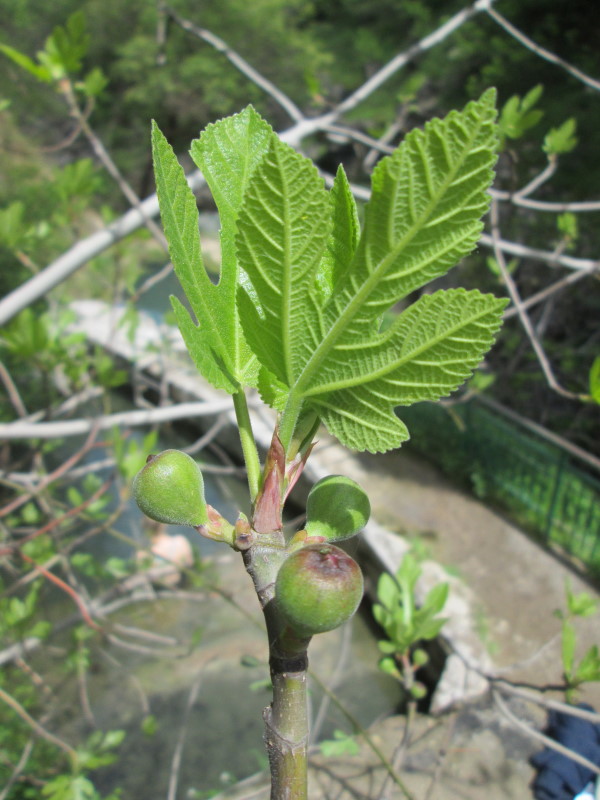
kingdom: Plantae
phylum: Tracheophyta
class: Magnoliopsida
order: Rosales
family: Moraceae
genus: Ficus
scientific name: Ficus carica
